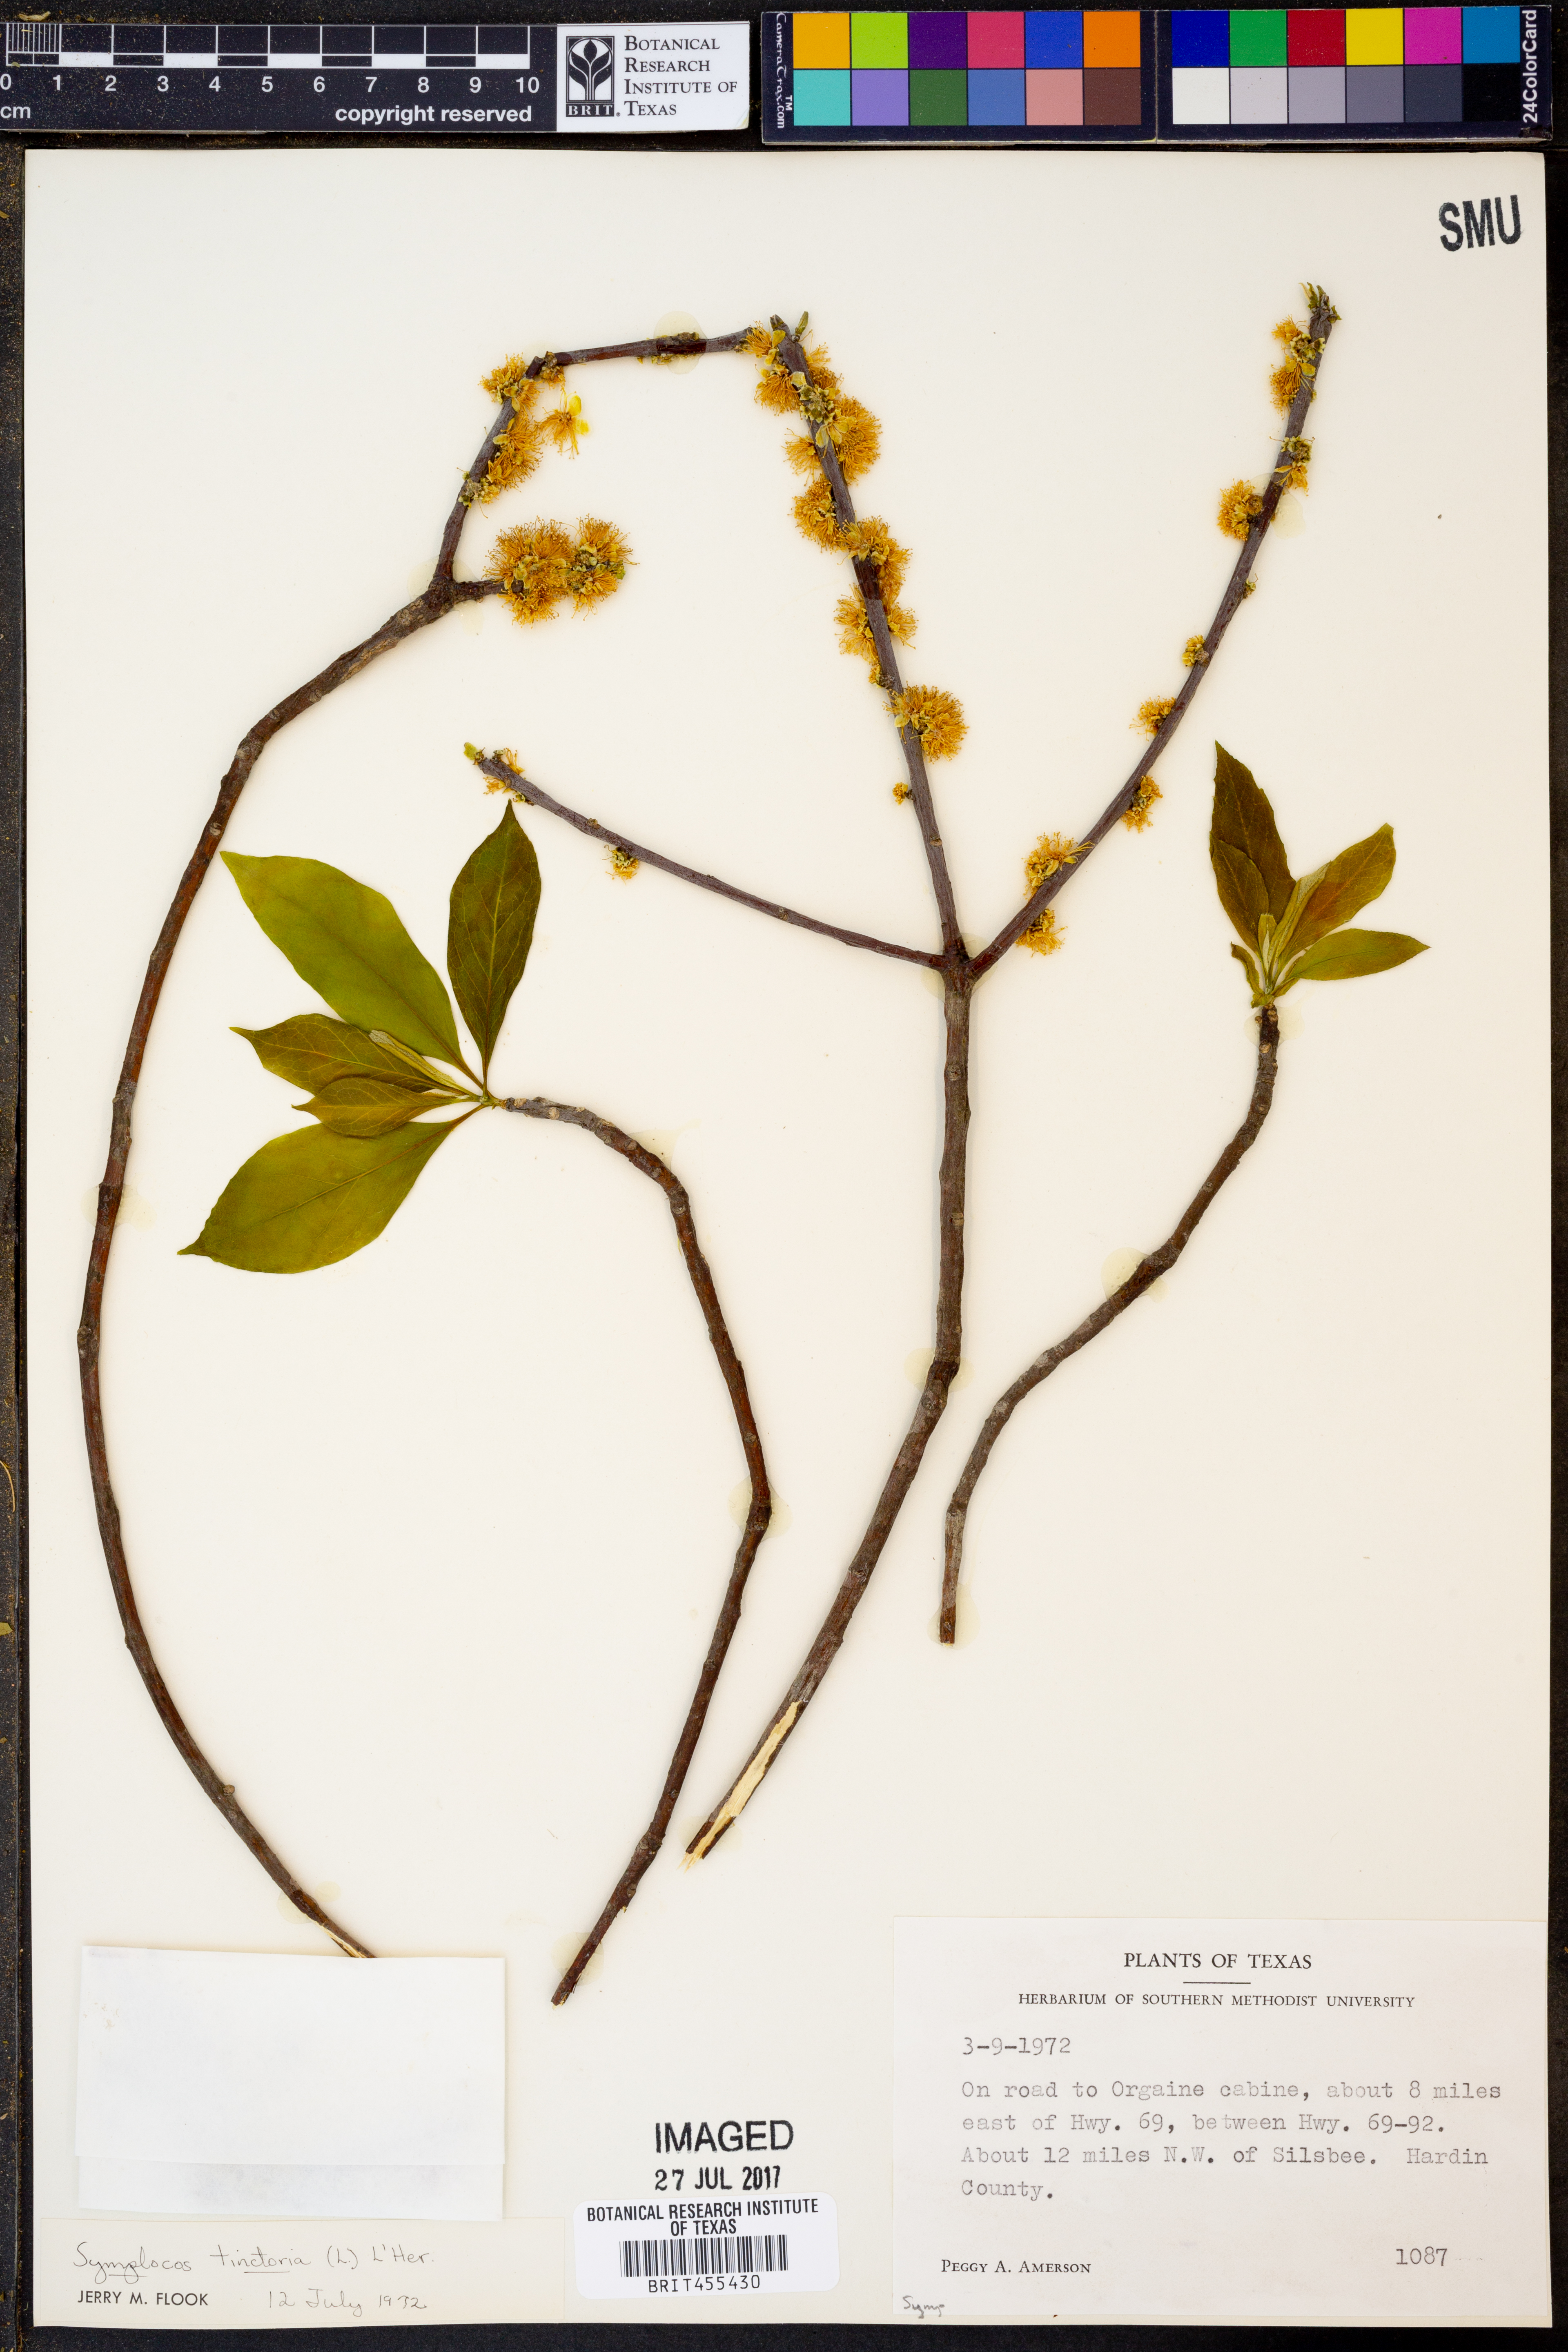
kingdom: Plantae
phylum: Tracheophyta
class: Magnoliopsida
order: Ericales
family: Symplocaceae
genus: Symplocos
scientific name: Symplocos tinctoria
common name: Horse-sugar
